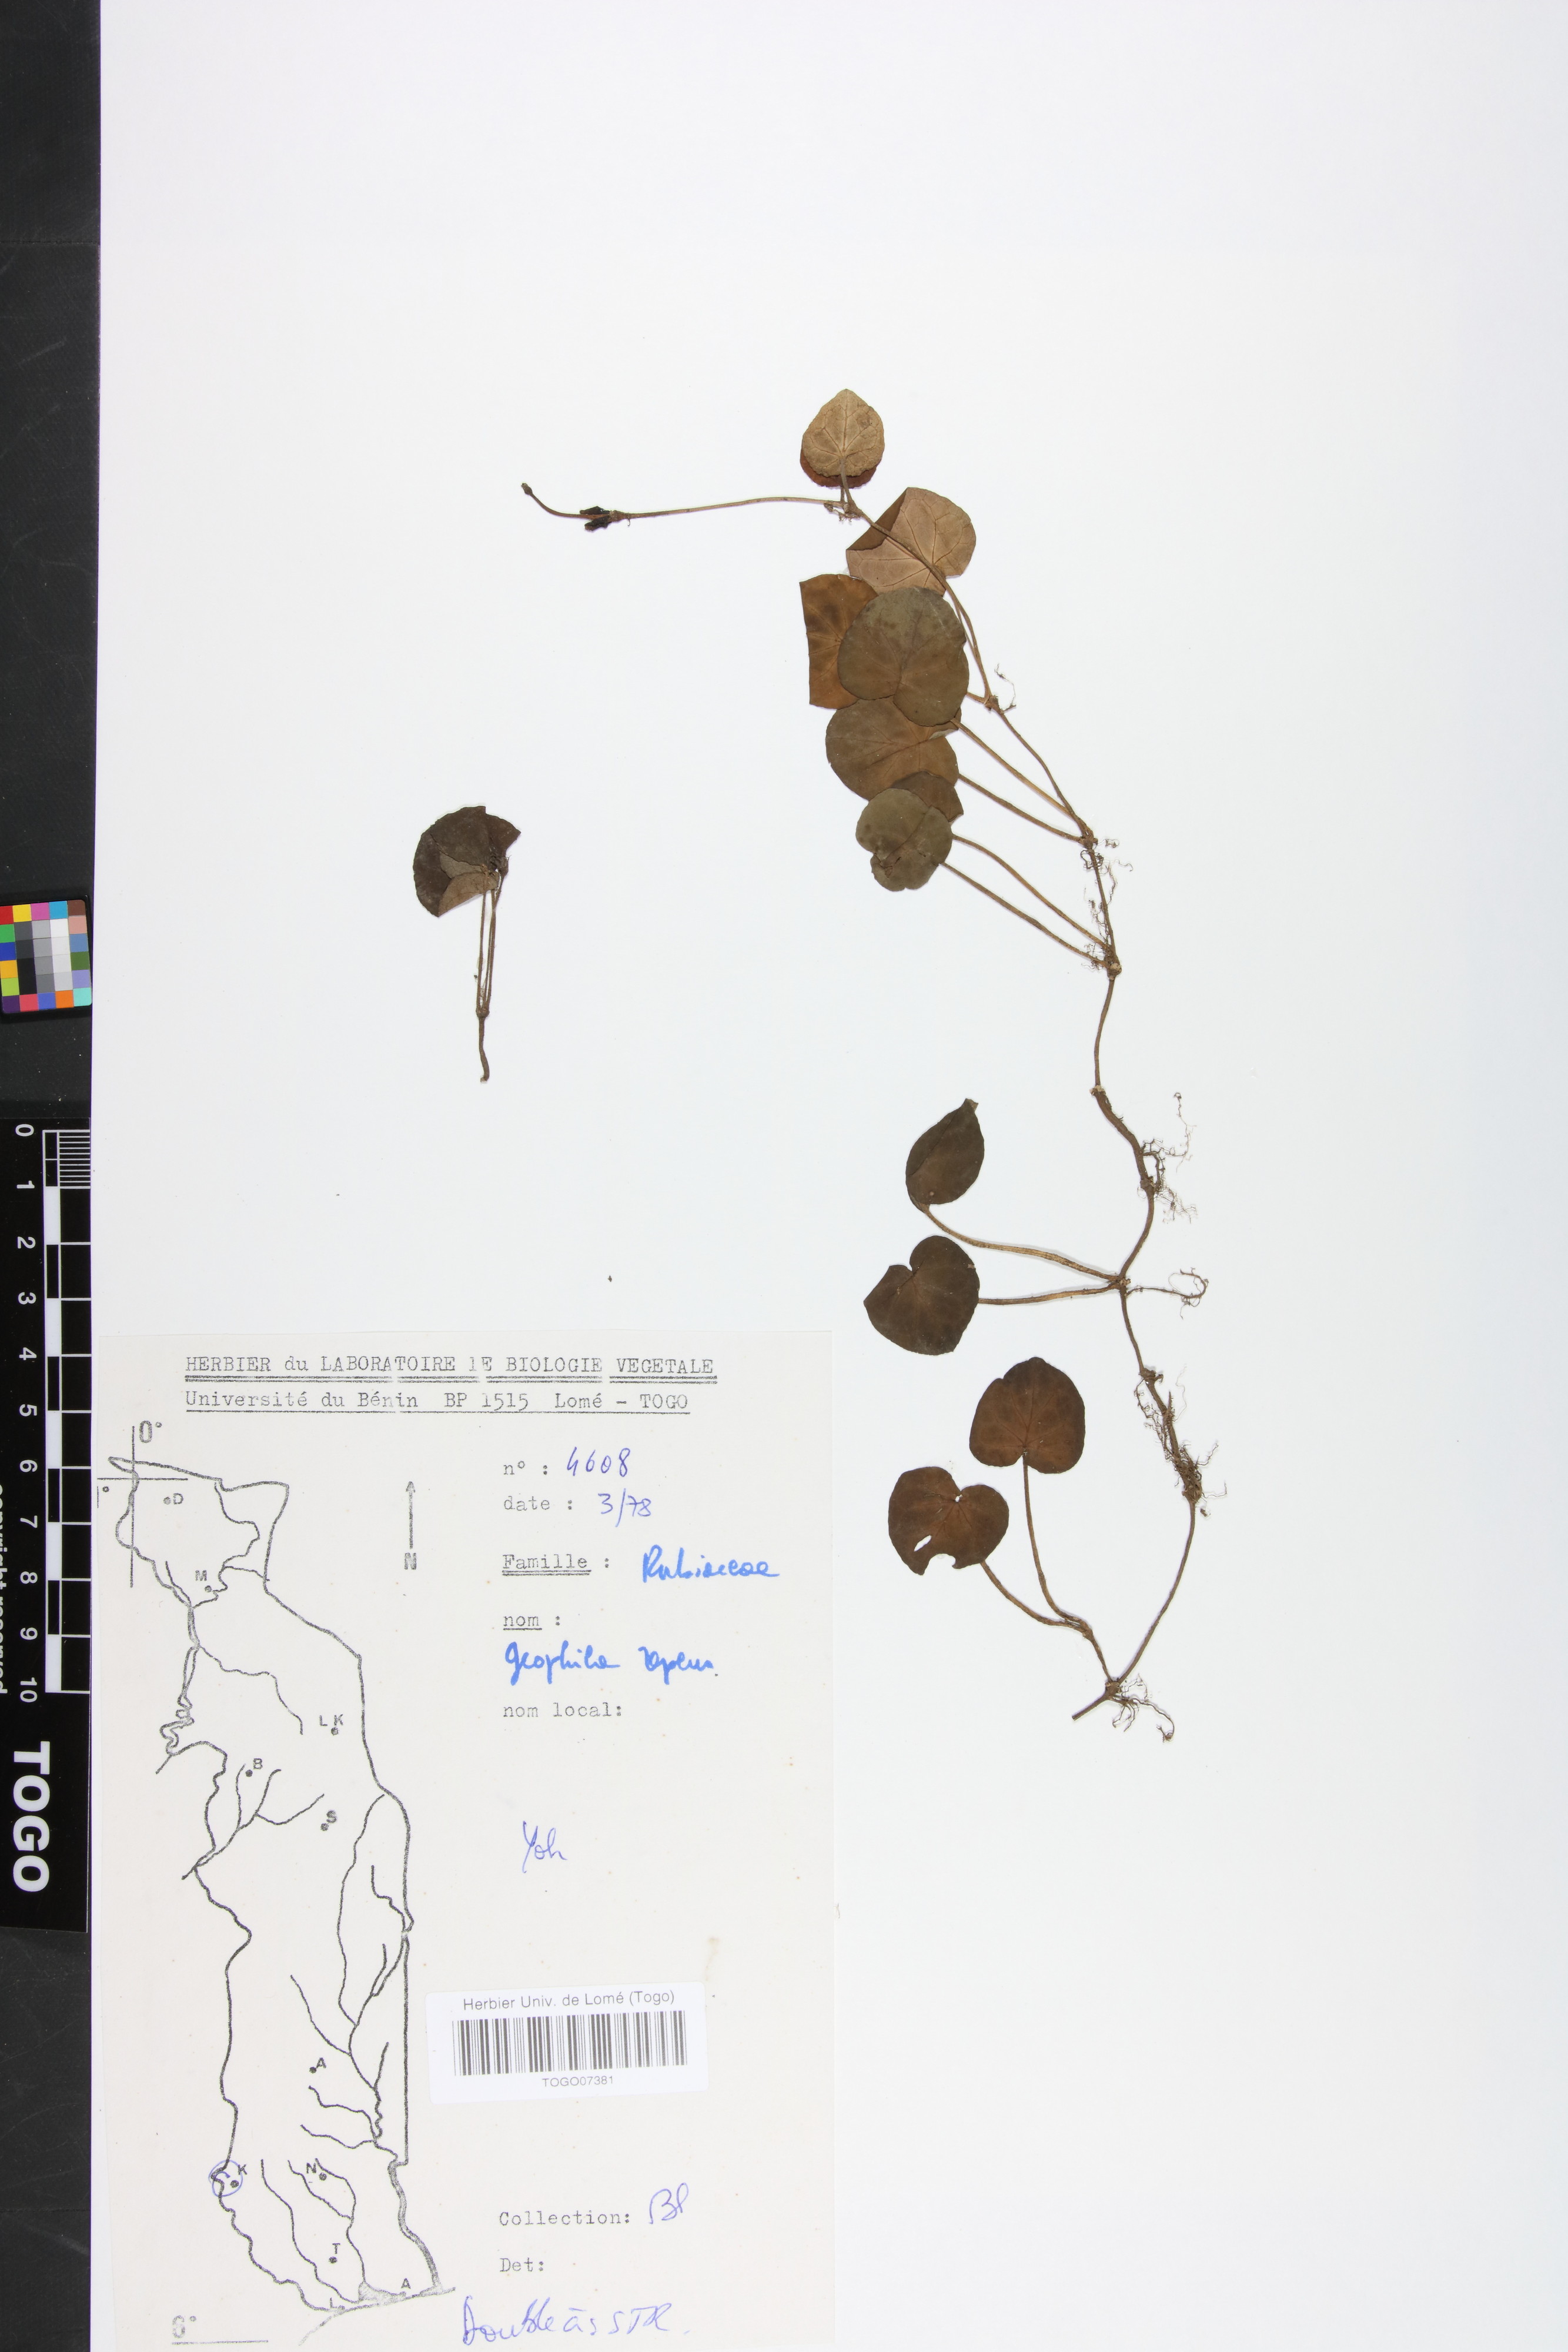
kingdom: Plantae
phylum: Tracheophyta
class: Magnoliopsida
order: Gentianales
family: Rubiaceae
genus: Geophila
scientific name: Geophila repens
